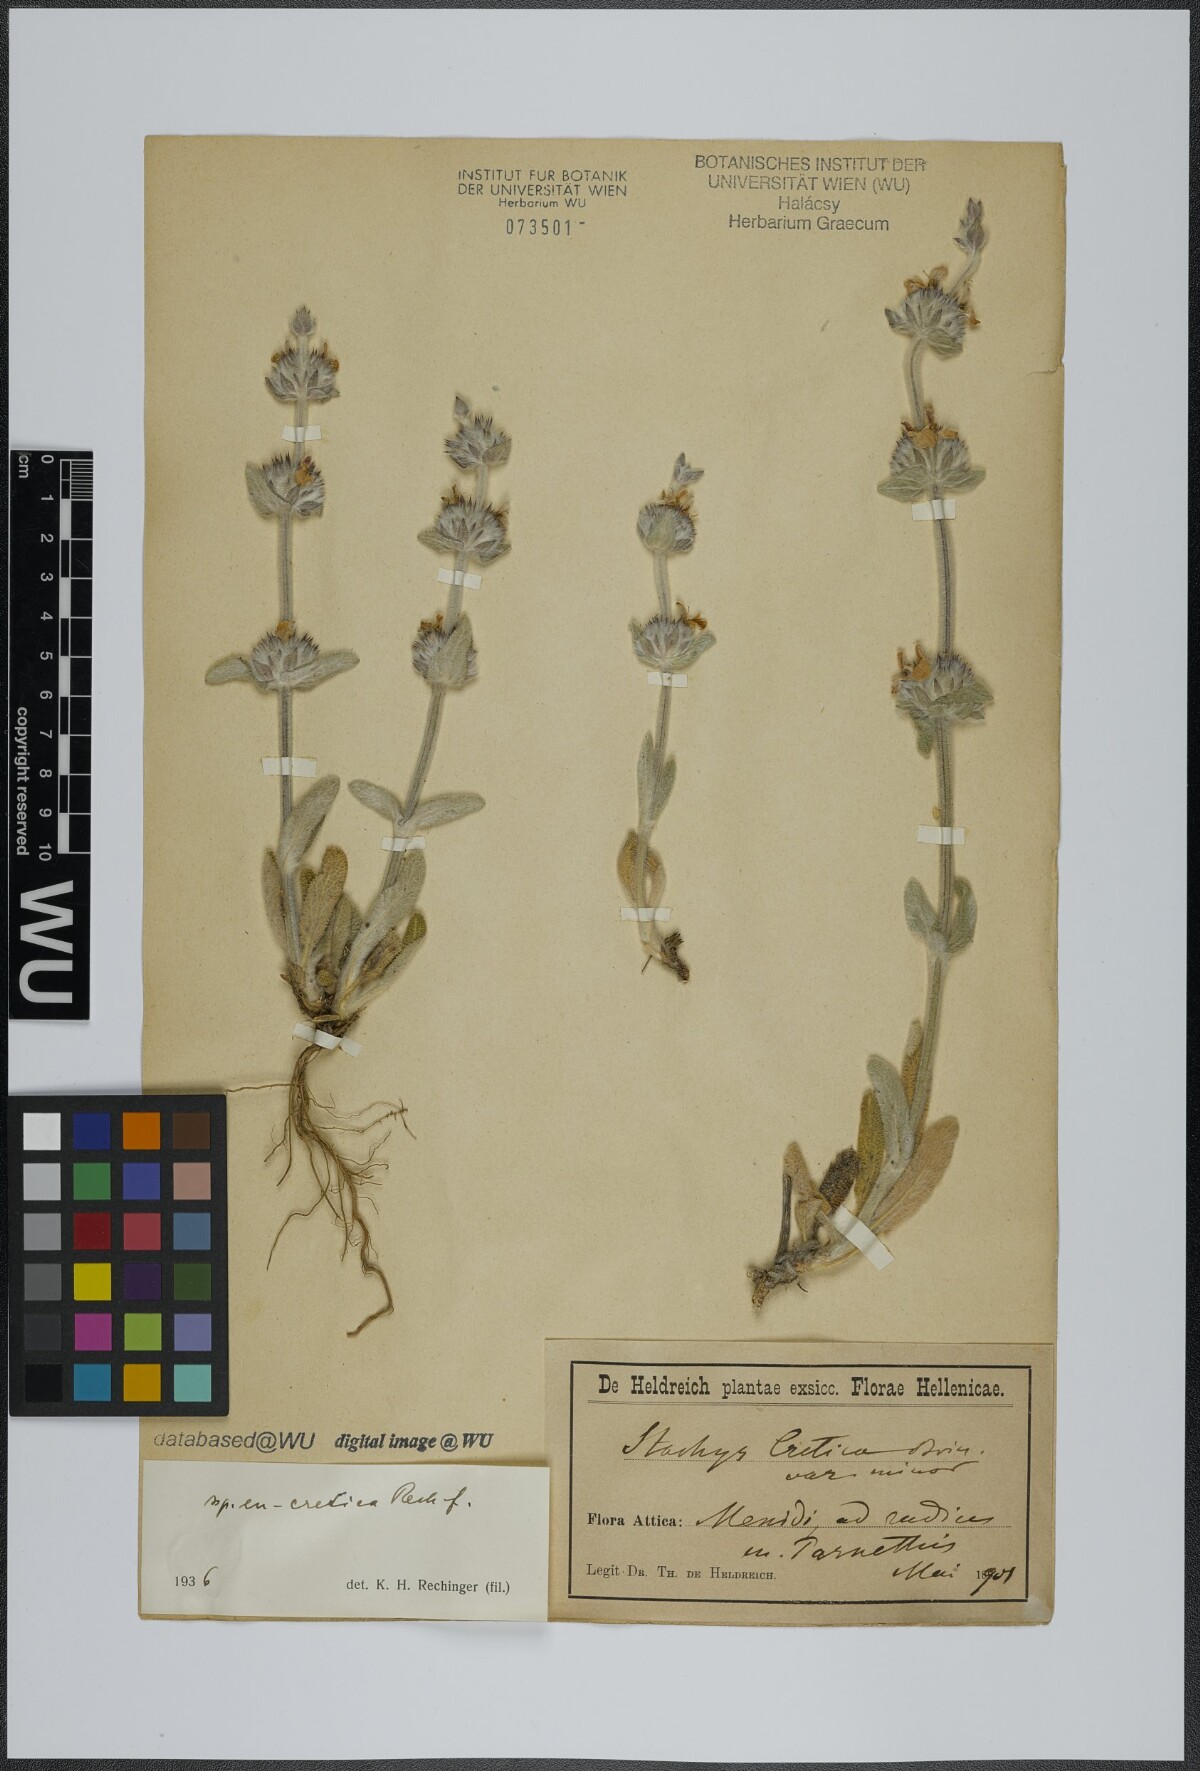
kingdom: Plantae
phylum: Tracheophyta
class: Magnoliopsida
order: Lamiales
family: Lamiaceae
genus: Stachys
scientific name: Stachys cretica
